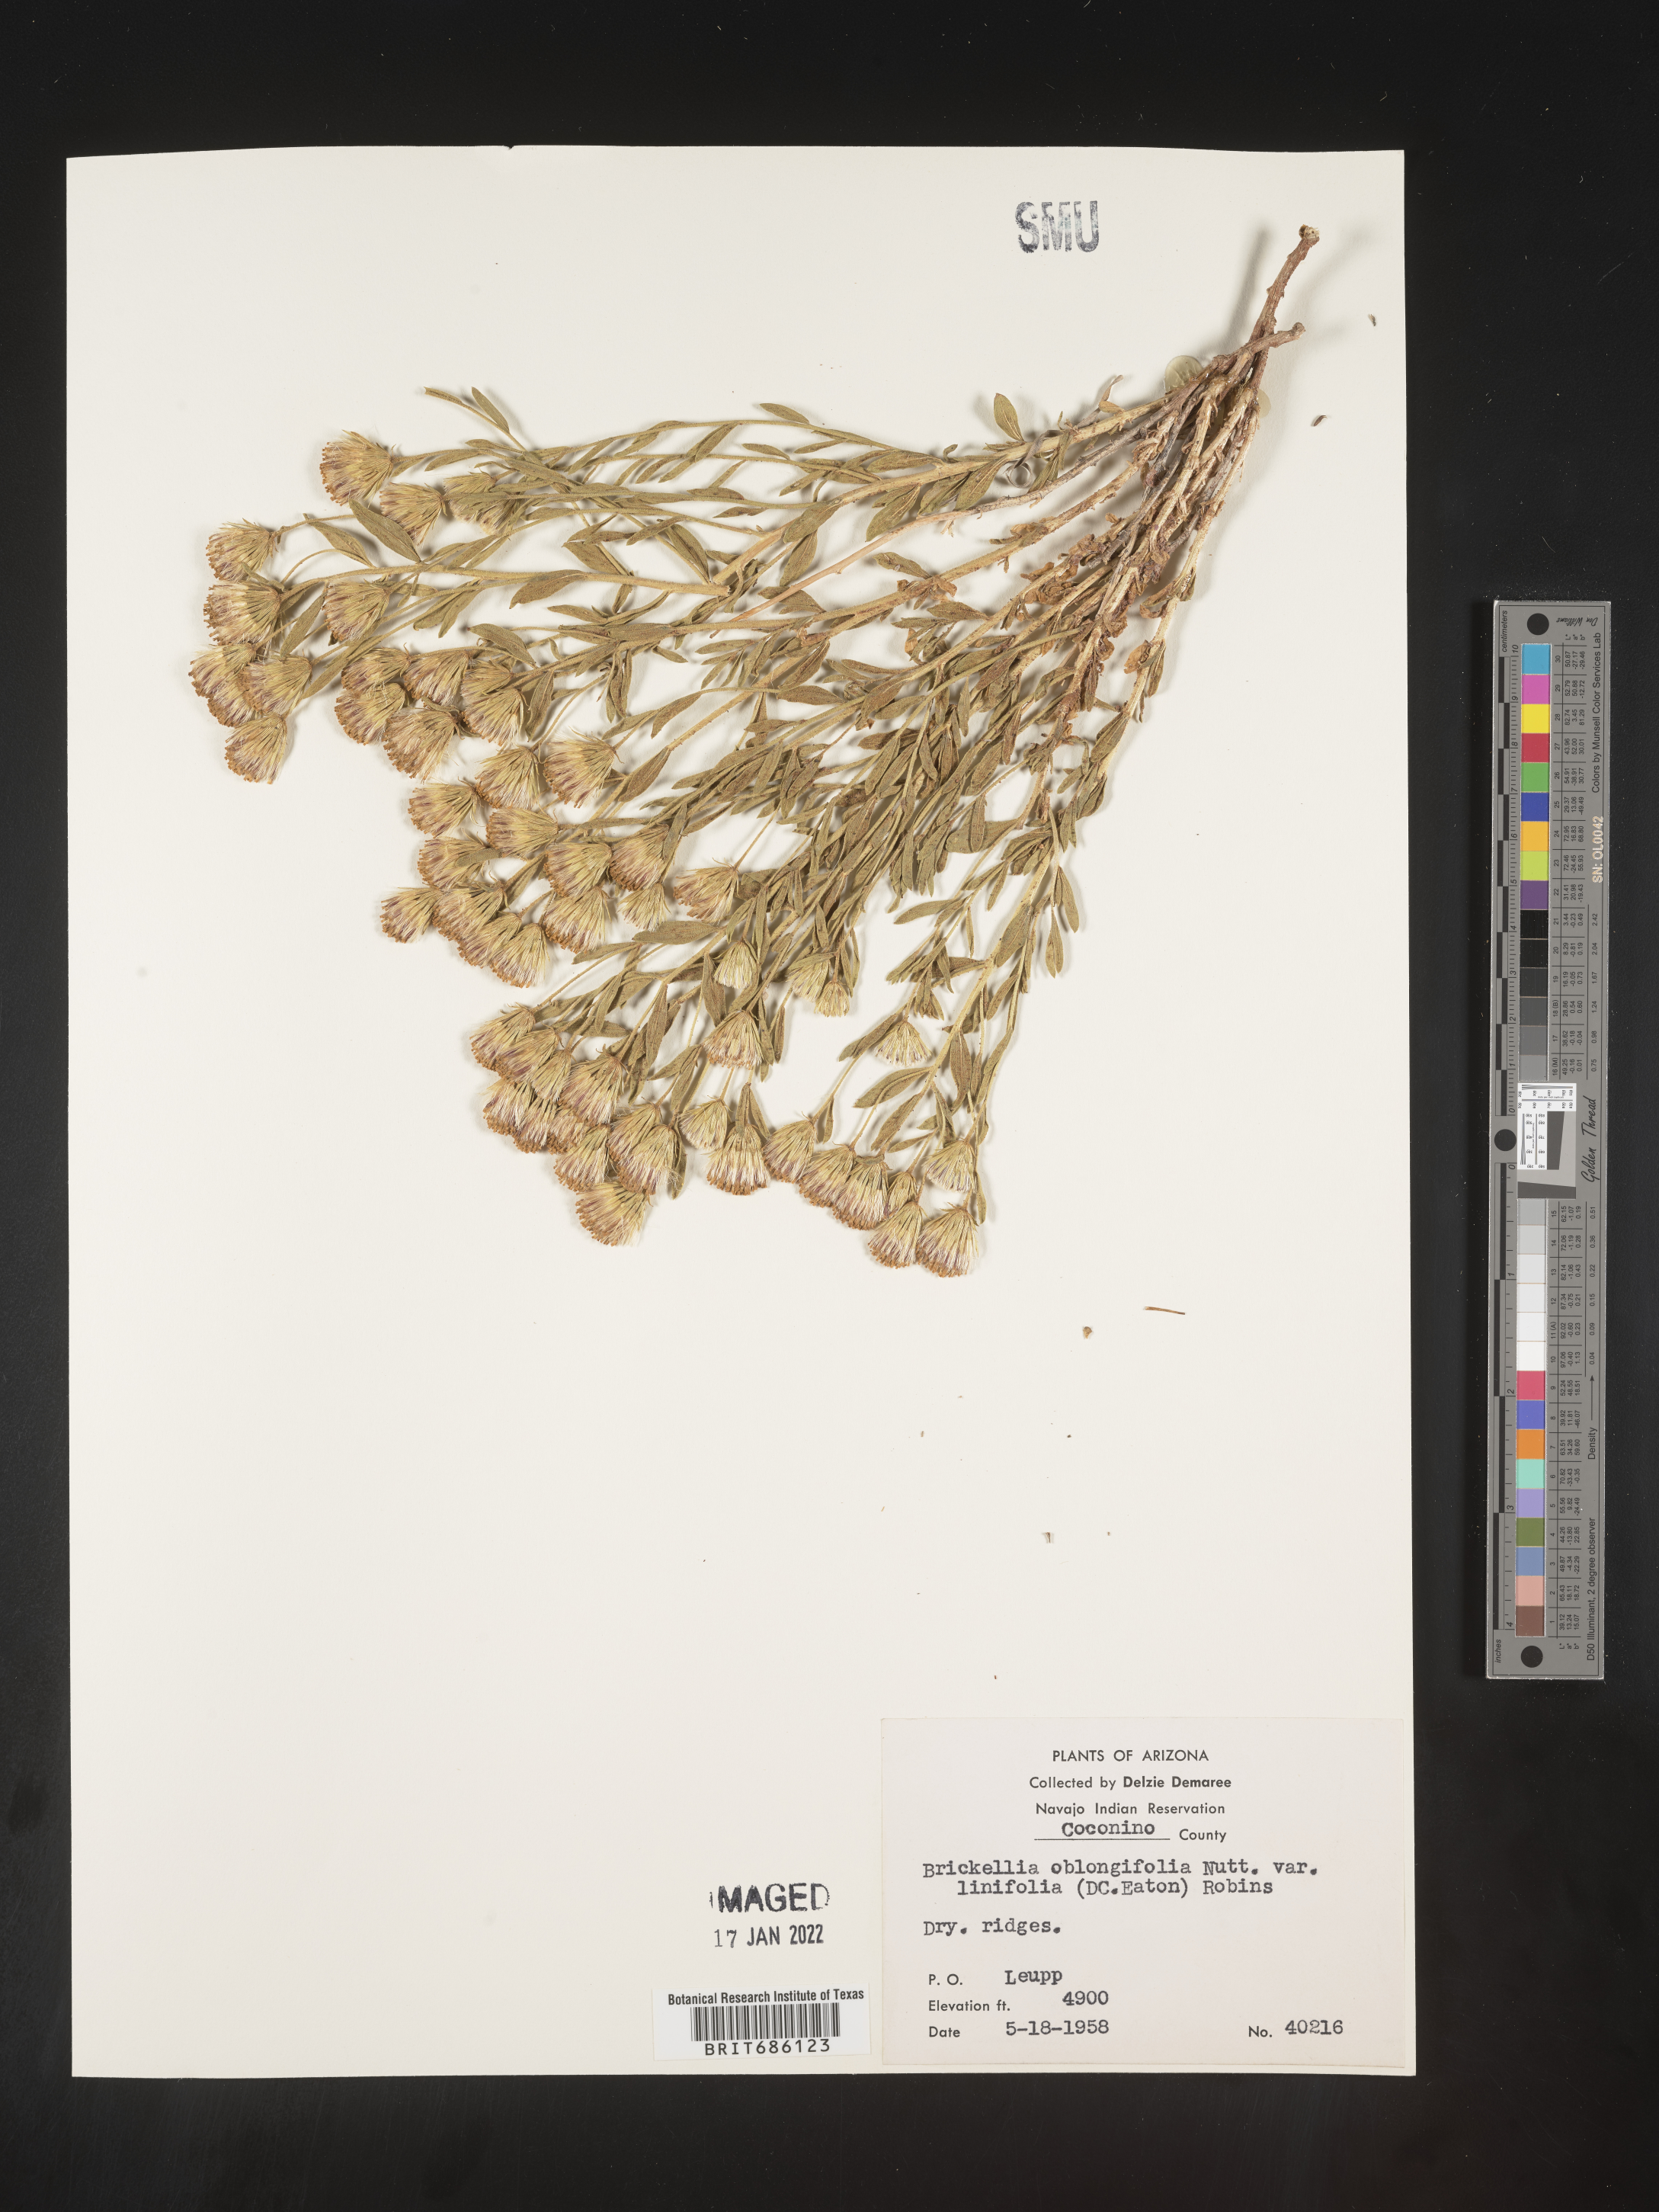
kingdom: Plantae
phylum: Tracheophyta
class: Magnoliopsida
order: Asterales
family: Asteraceae
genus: Brickellia
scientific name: Brickellia oblongifolia
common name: Mojave brickellbush
